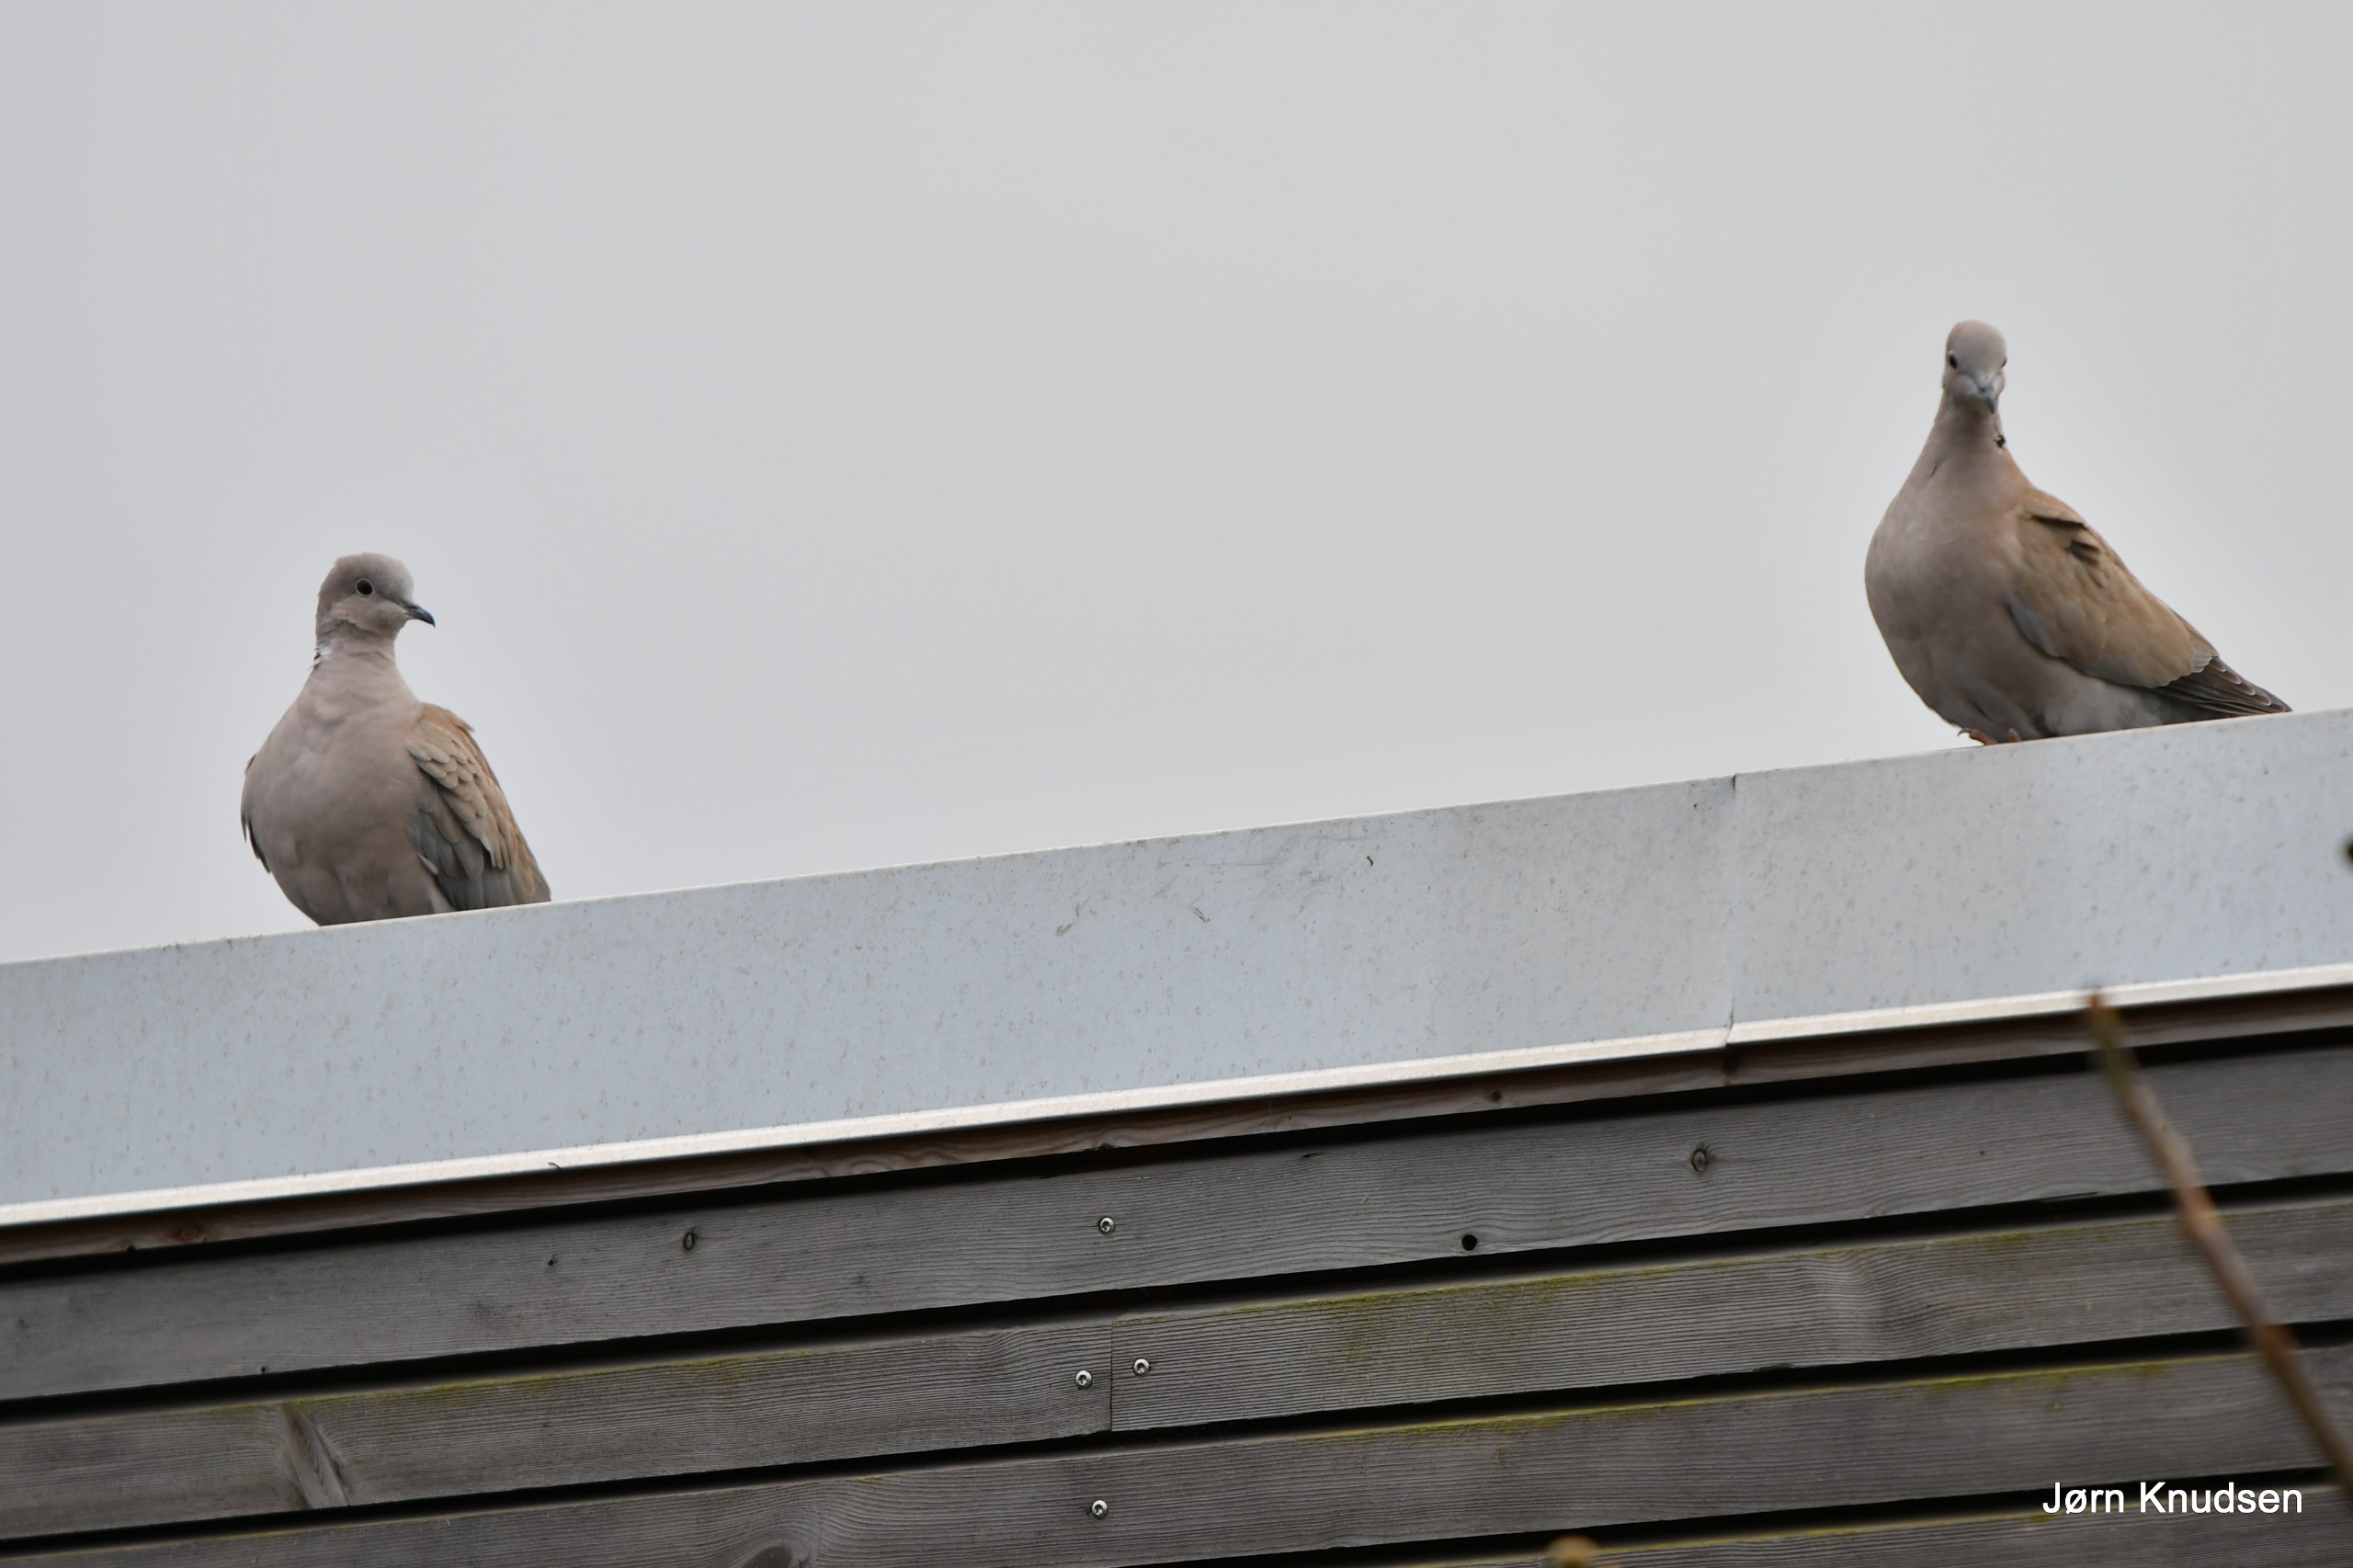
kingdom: Animalia
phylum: Chordata
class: Aves
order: Columbiformes
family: Columbidae
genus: Streptopelia
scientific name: Streptopelia decaocto
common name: Tyrkerdue
